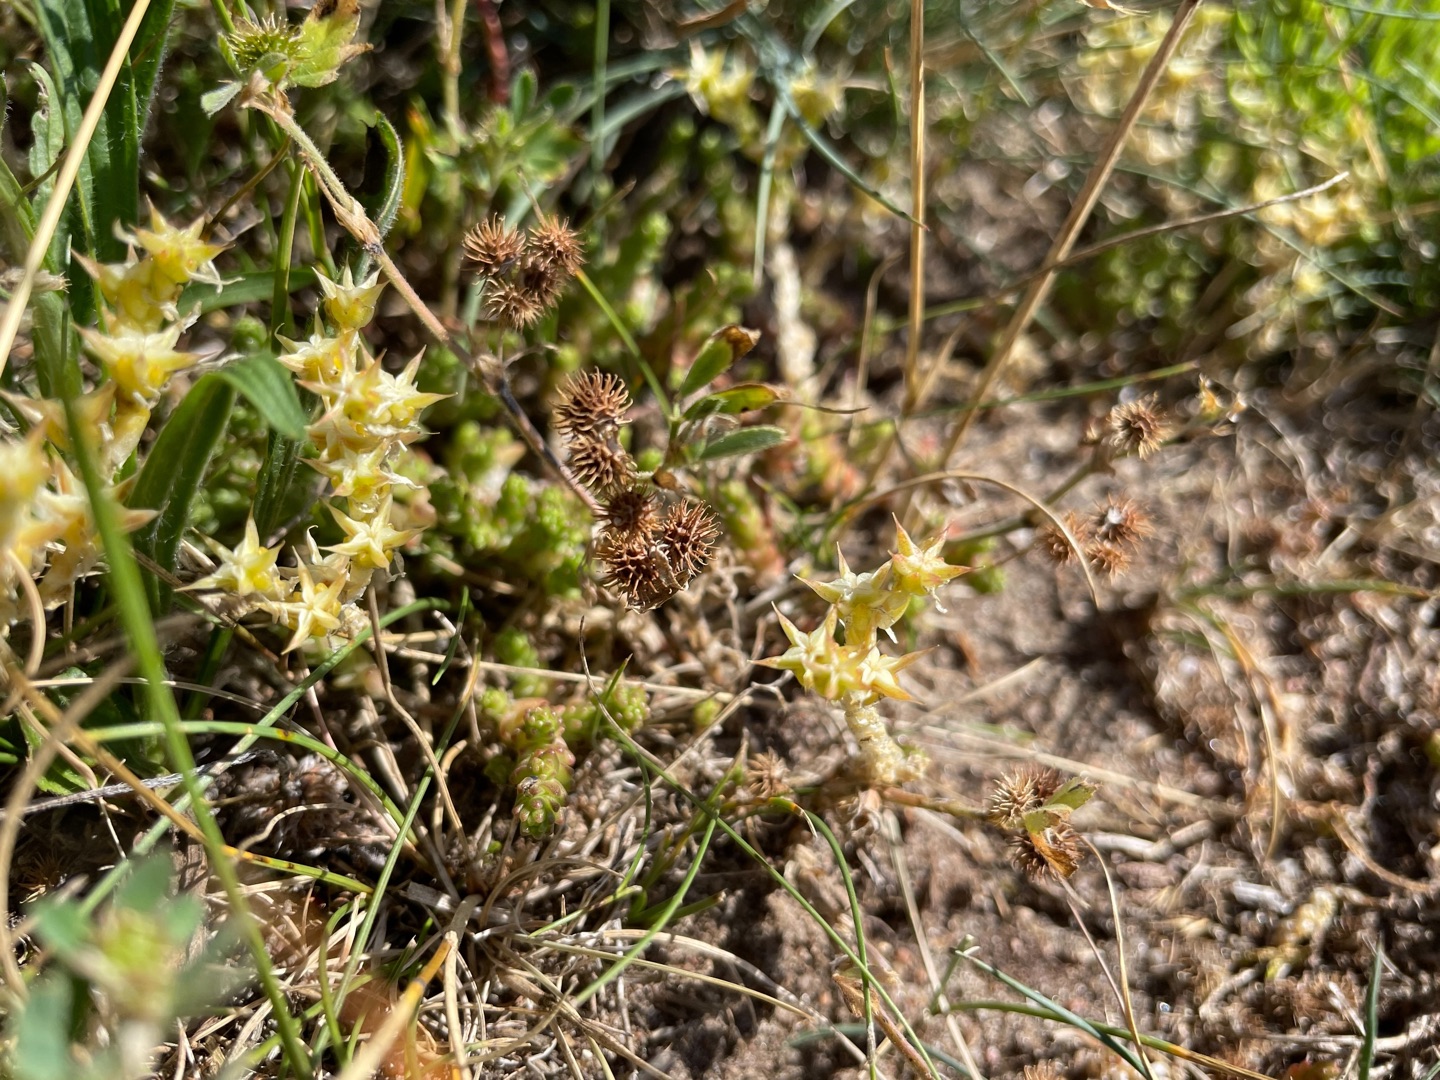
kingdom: Plantae
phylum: Tracheophyta
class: Magnoliopsida
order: Fabales
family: Fabaceae
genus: Medicago
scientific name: Medicago minima
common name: Liden sneglebælg
